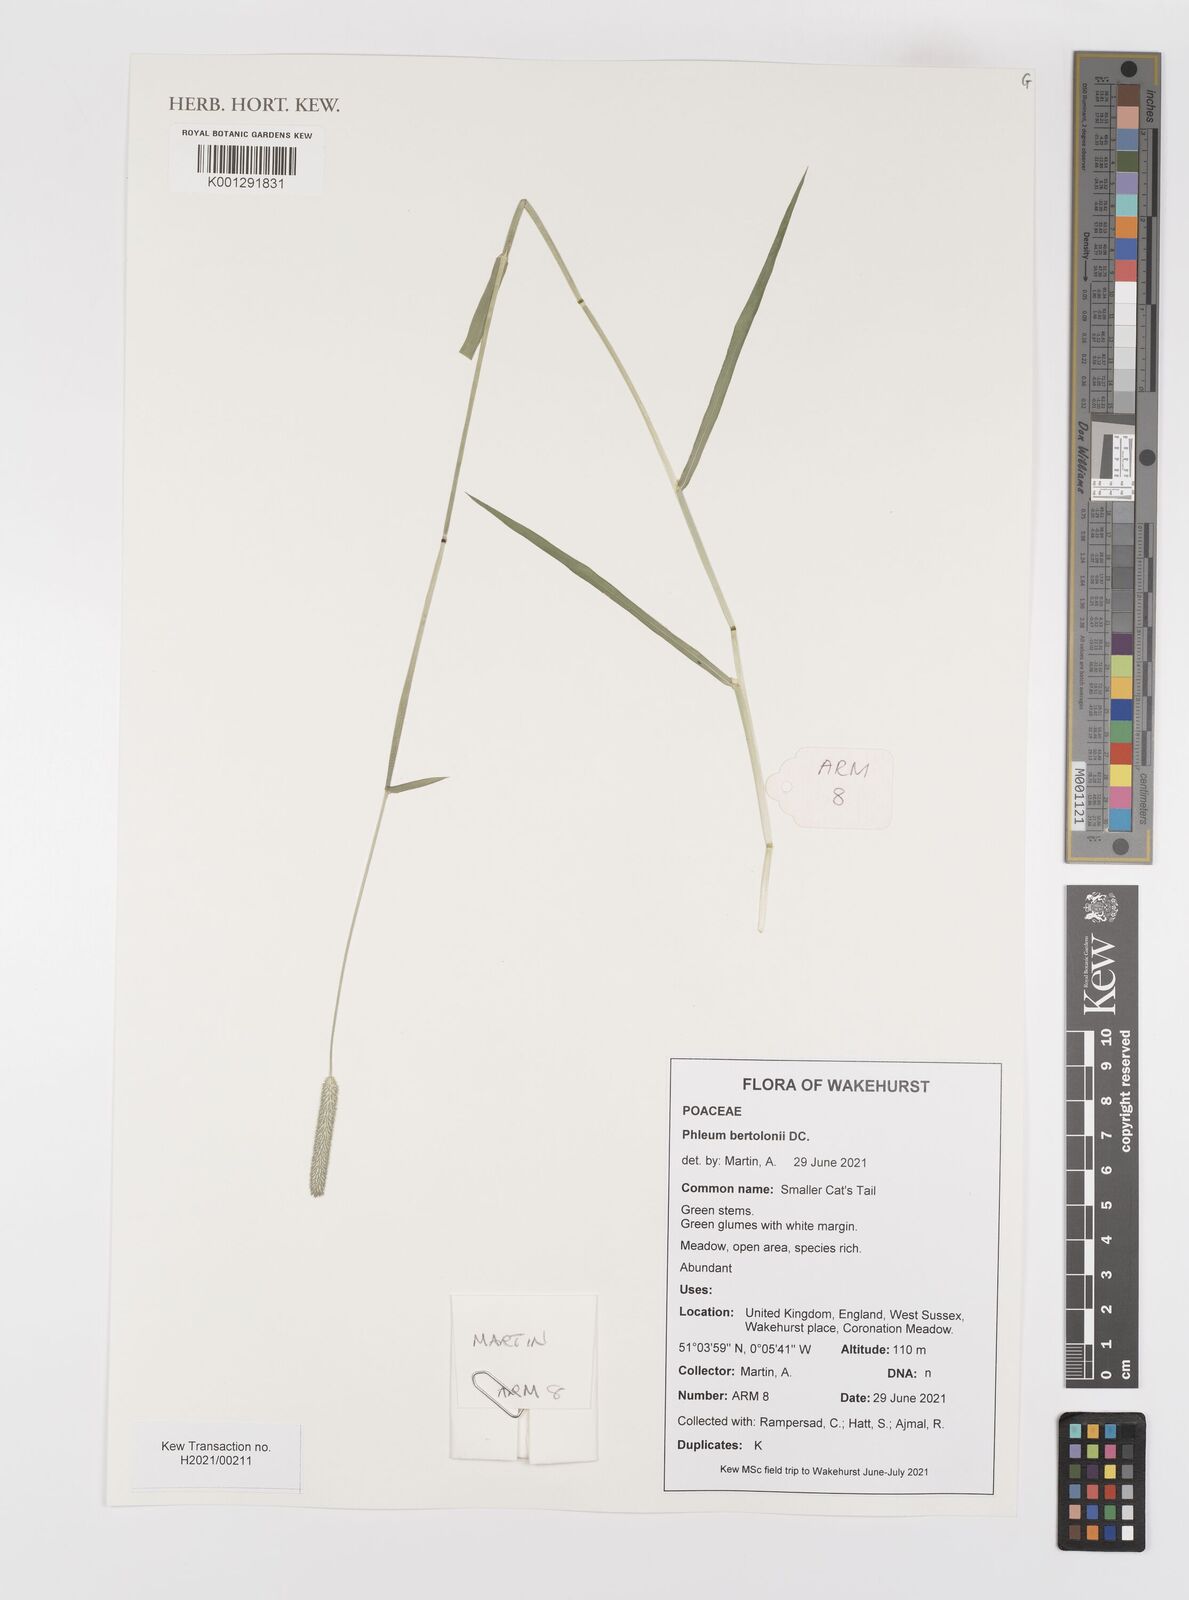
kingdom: Plantae
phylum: Tracheophyta
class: Liliopsida
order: Poales
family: Poaceae
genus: Phleum
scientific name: Phleum bertolonii
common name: Smaller cat's-tail
